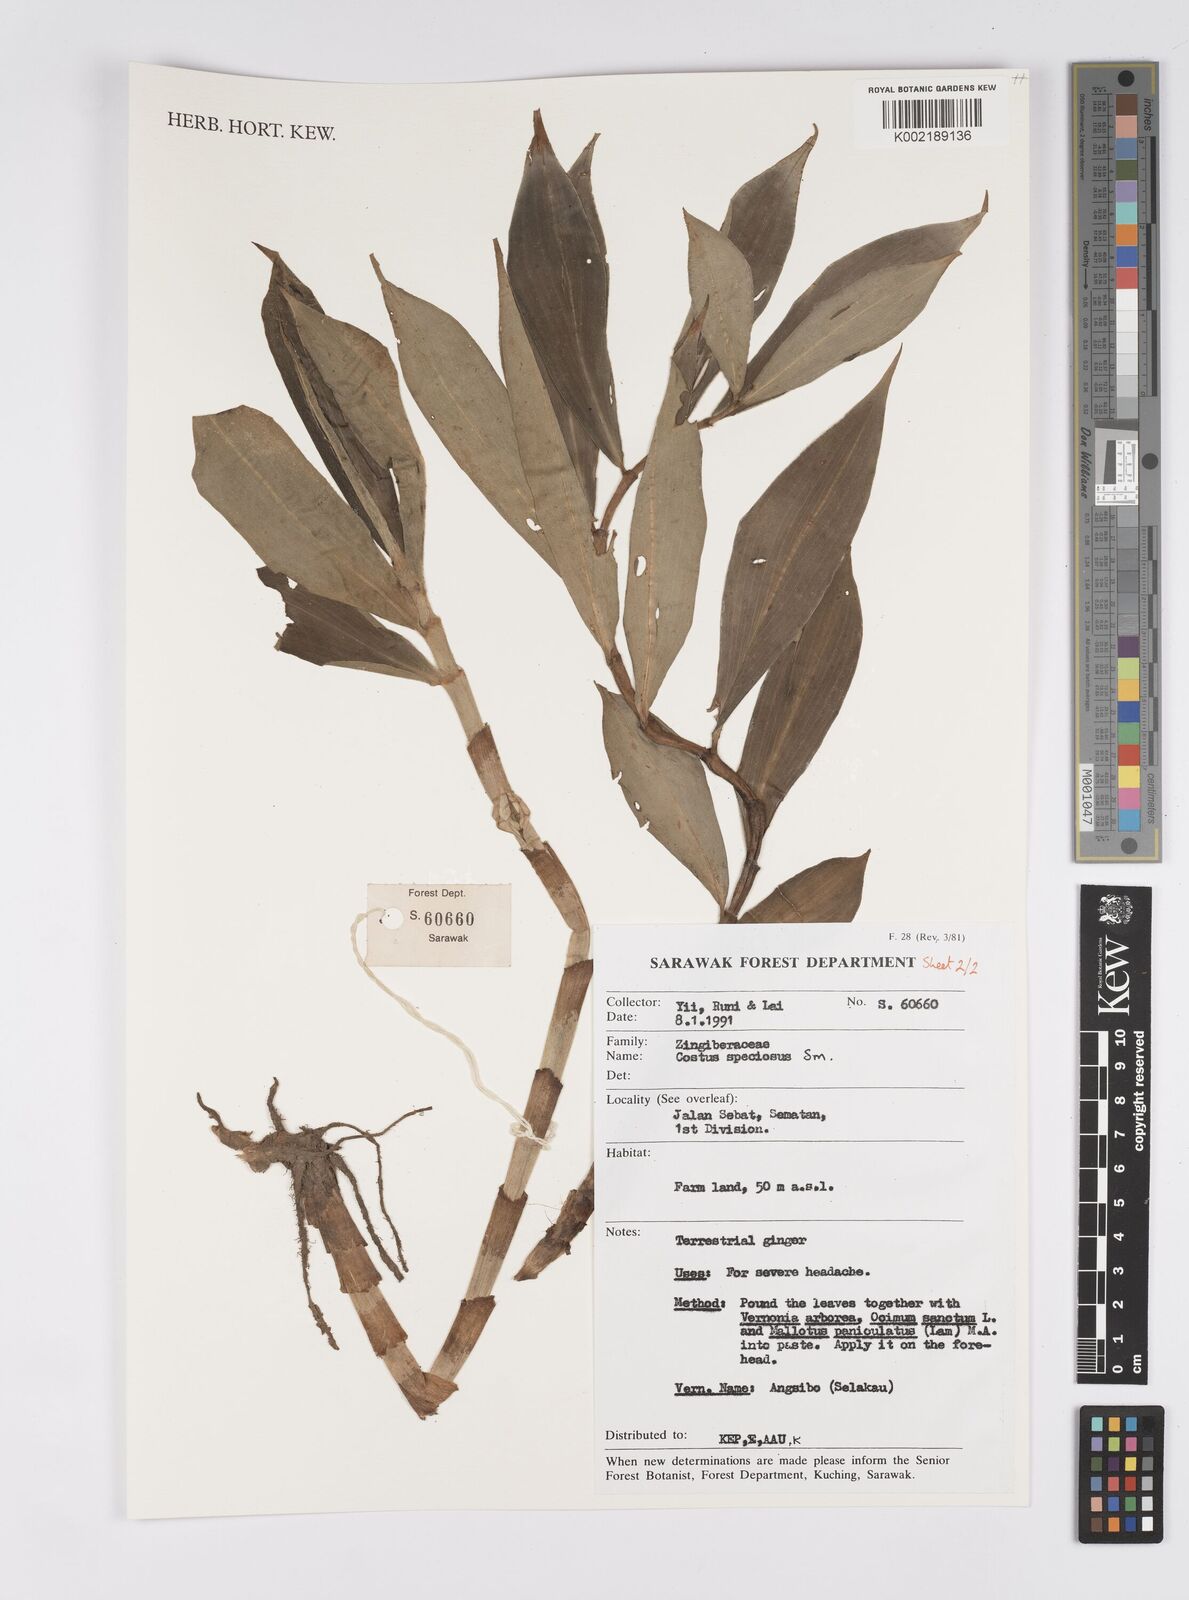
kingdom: Plantae
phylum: Tracheophyta
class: Liliopsida
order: Zingiberales
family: Costaceae
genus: Hellenia
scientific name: Hellenia speciosa
